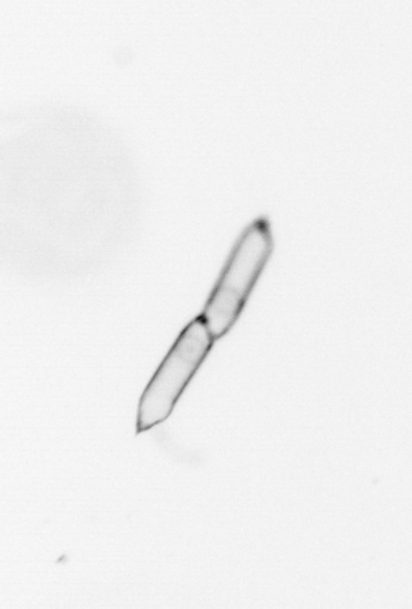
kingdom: Chromista
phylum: Ochrophyta
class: Bacillariophyceae
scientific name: Bacillariophyceae
